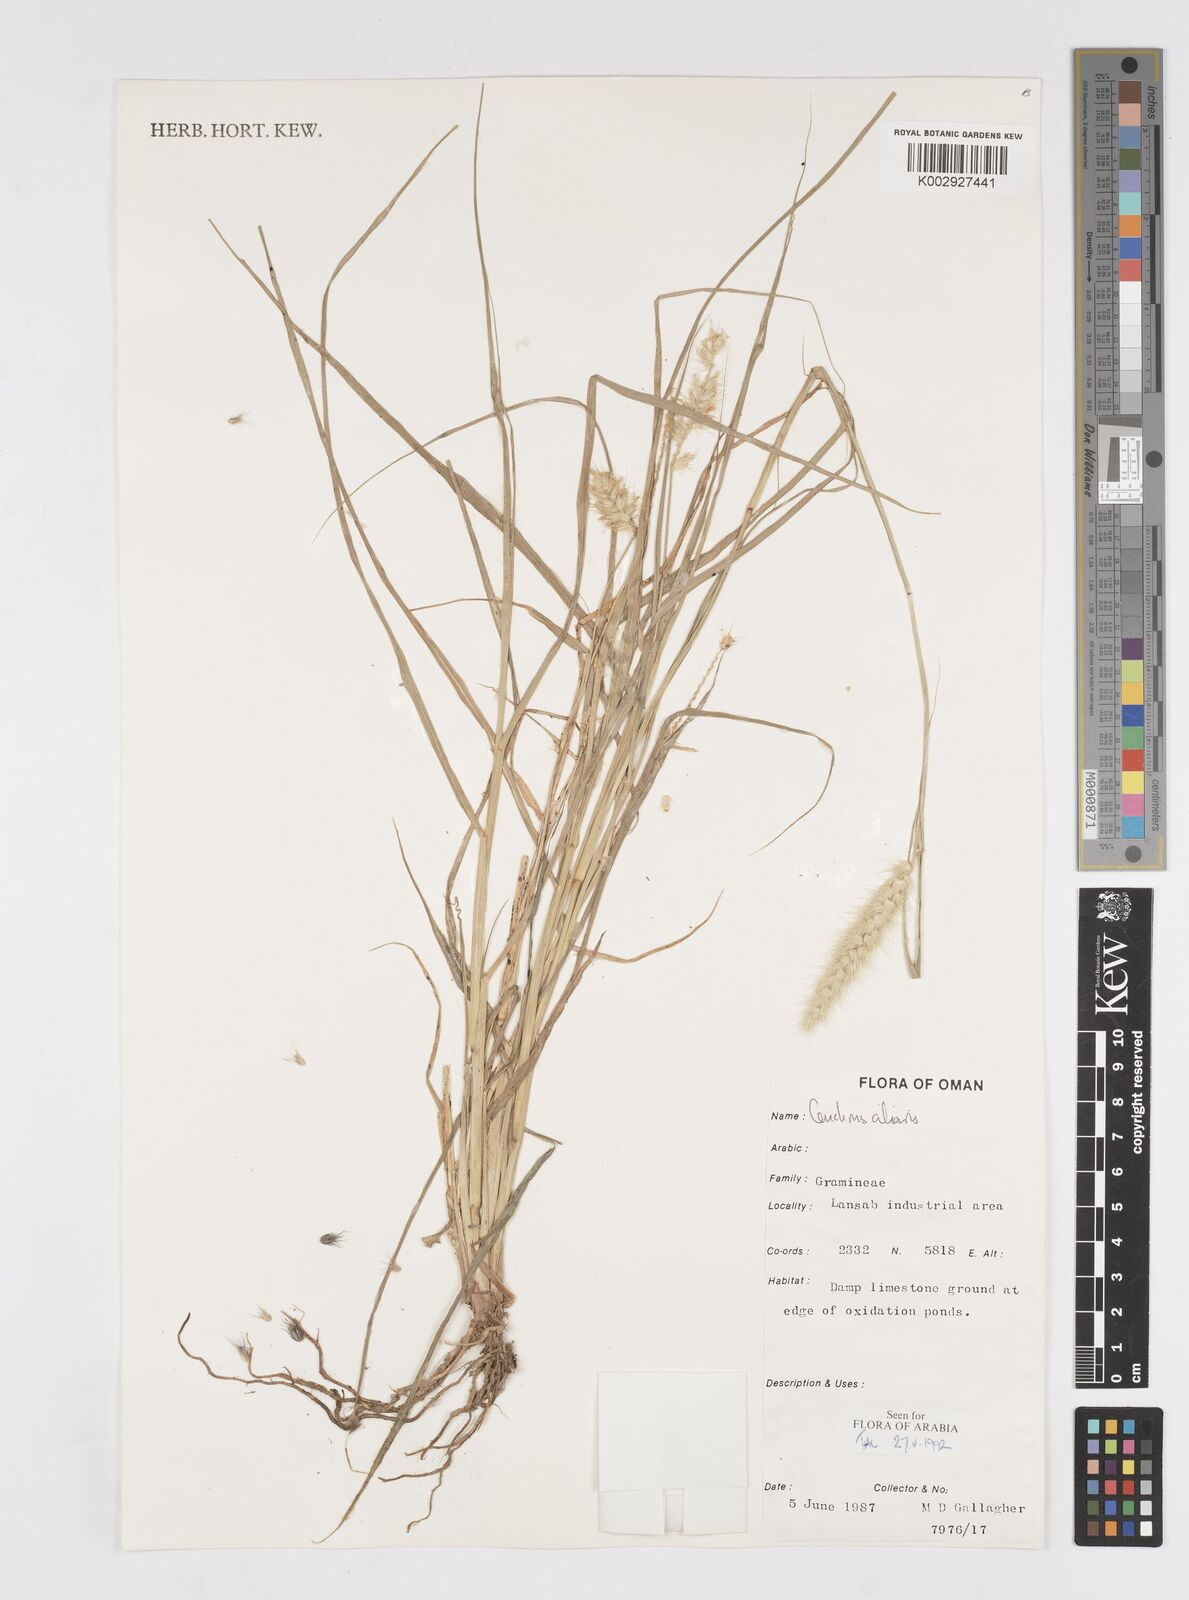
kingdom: Plantae
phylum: Tracheophyta
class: Liliopsida
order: Poales
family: Poaceae
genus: Cenchrus
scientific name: Cenchrus ciliaris
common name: Buffelgrass
